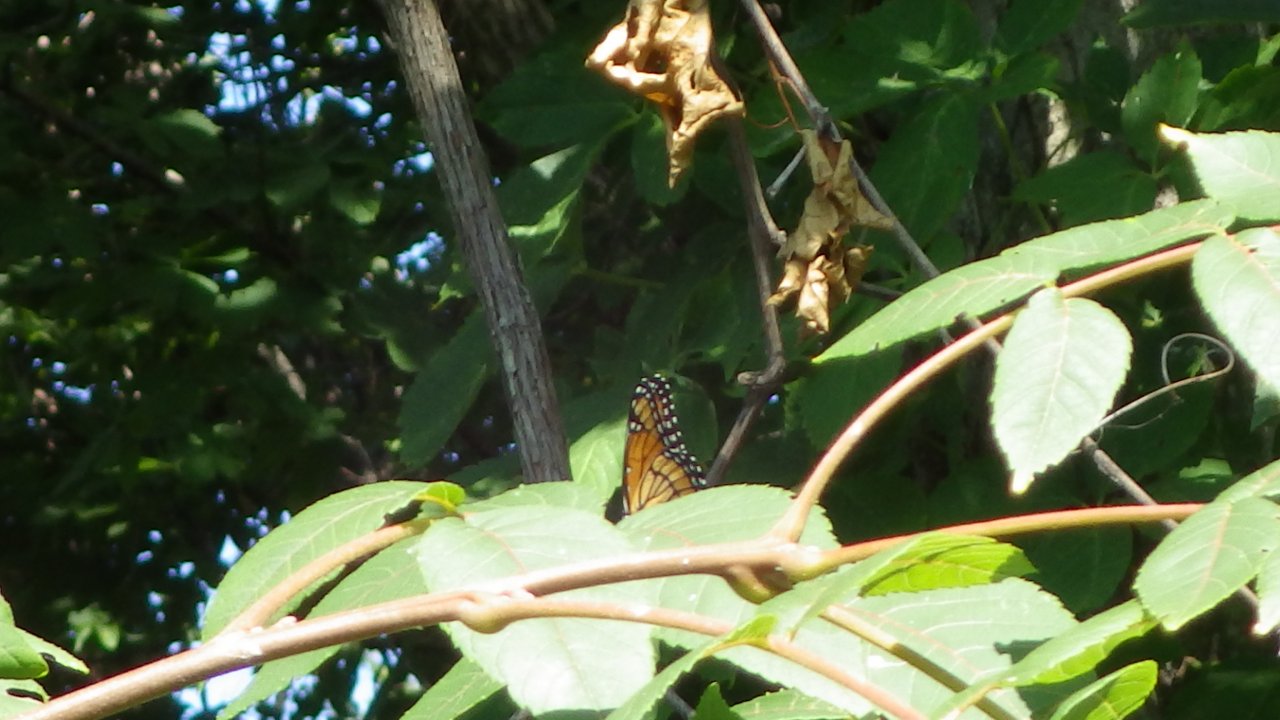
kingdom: Animalia
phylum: Arthropoda
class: Insecta
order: Lepidoptera
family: Nymphalidae
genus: Limenitis
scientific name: Limenitis archippus
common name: Viceroy
